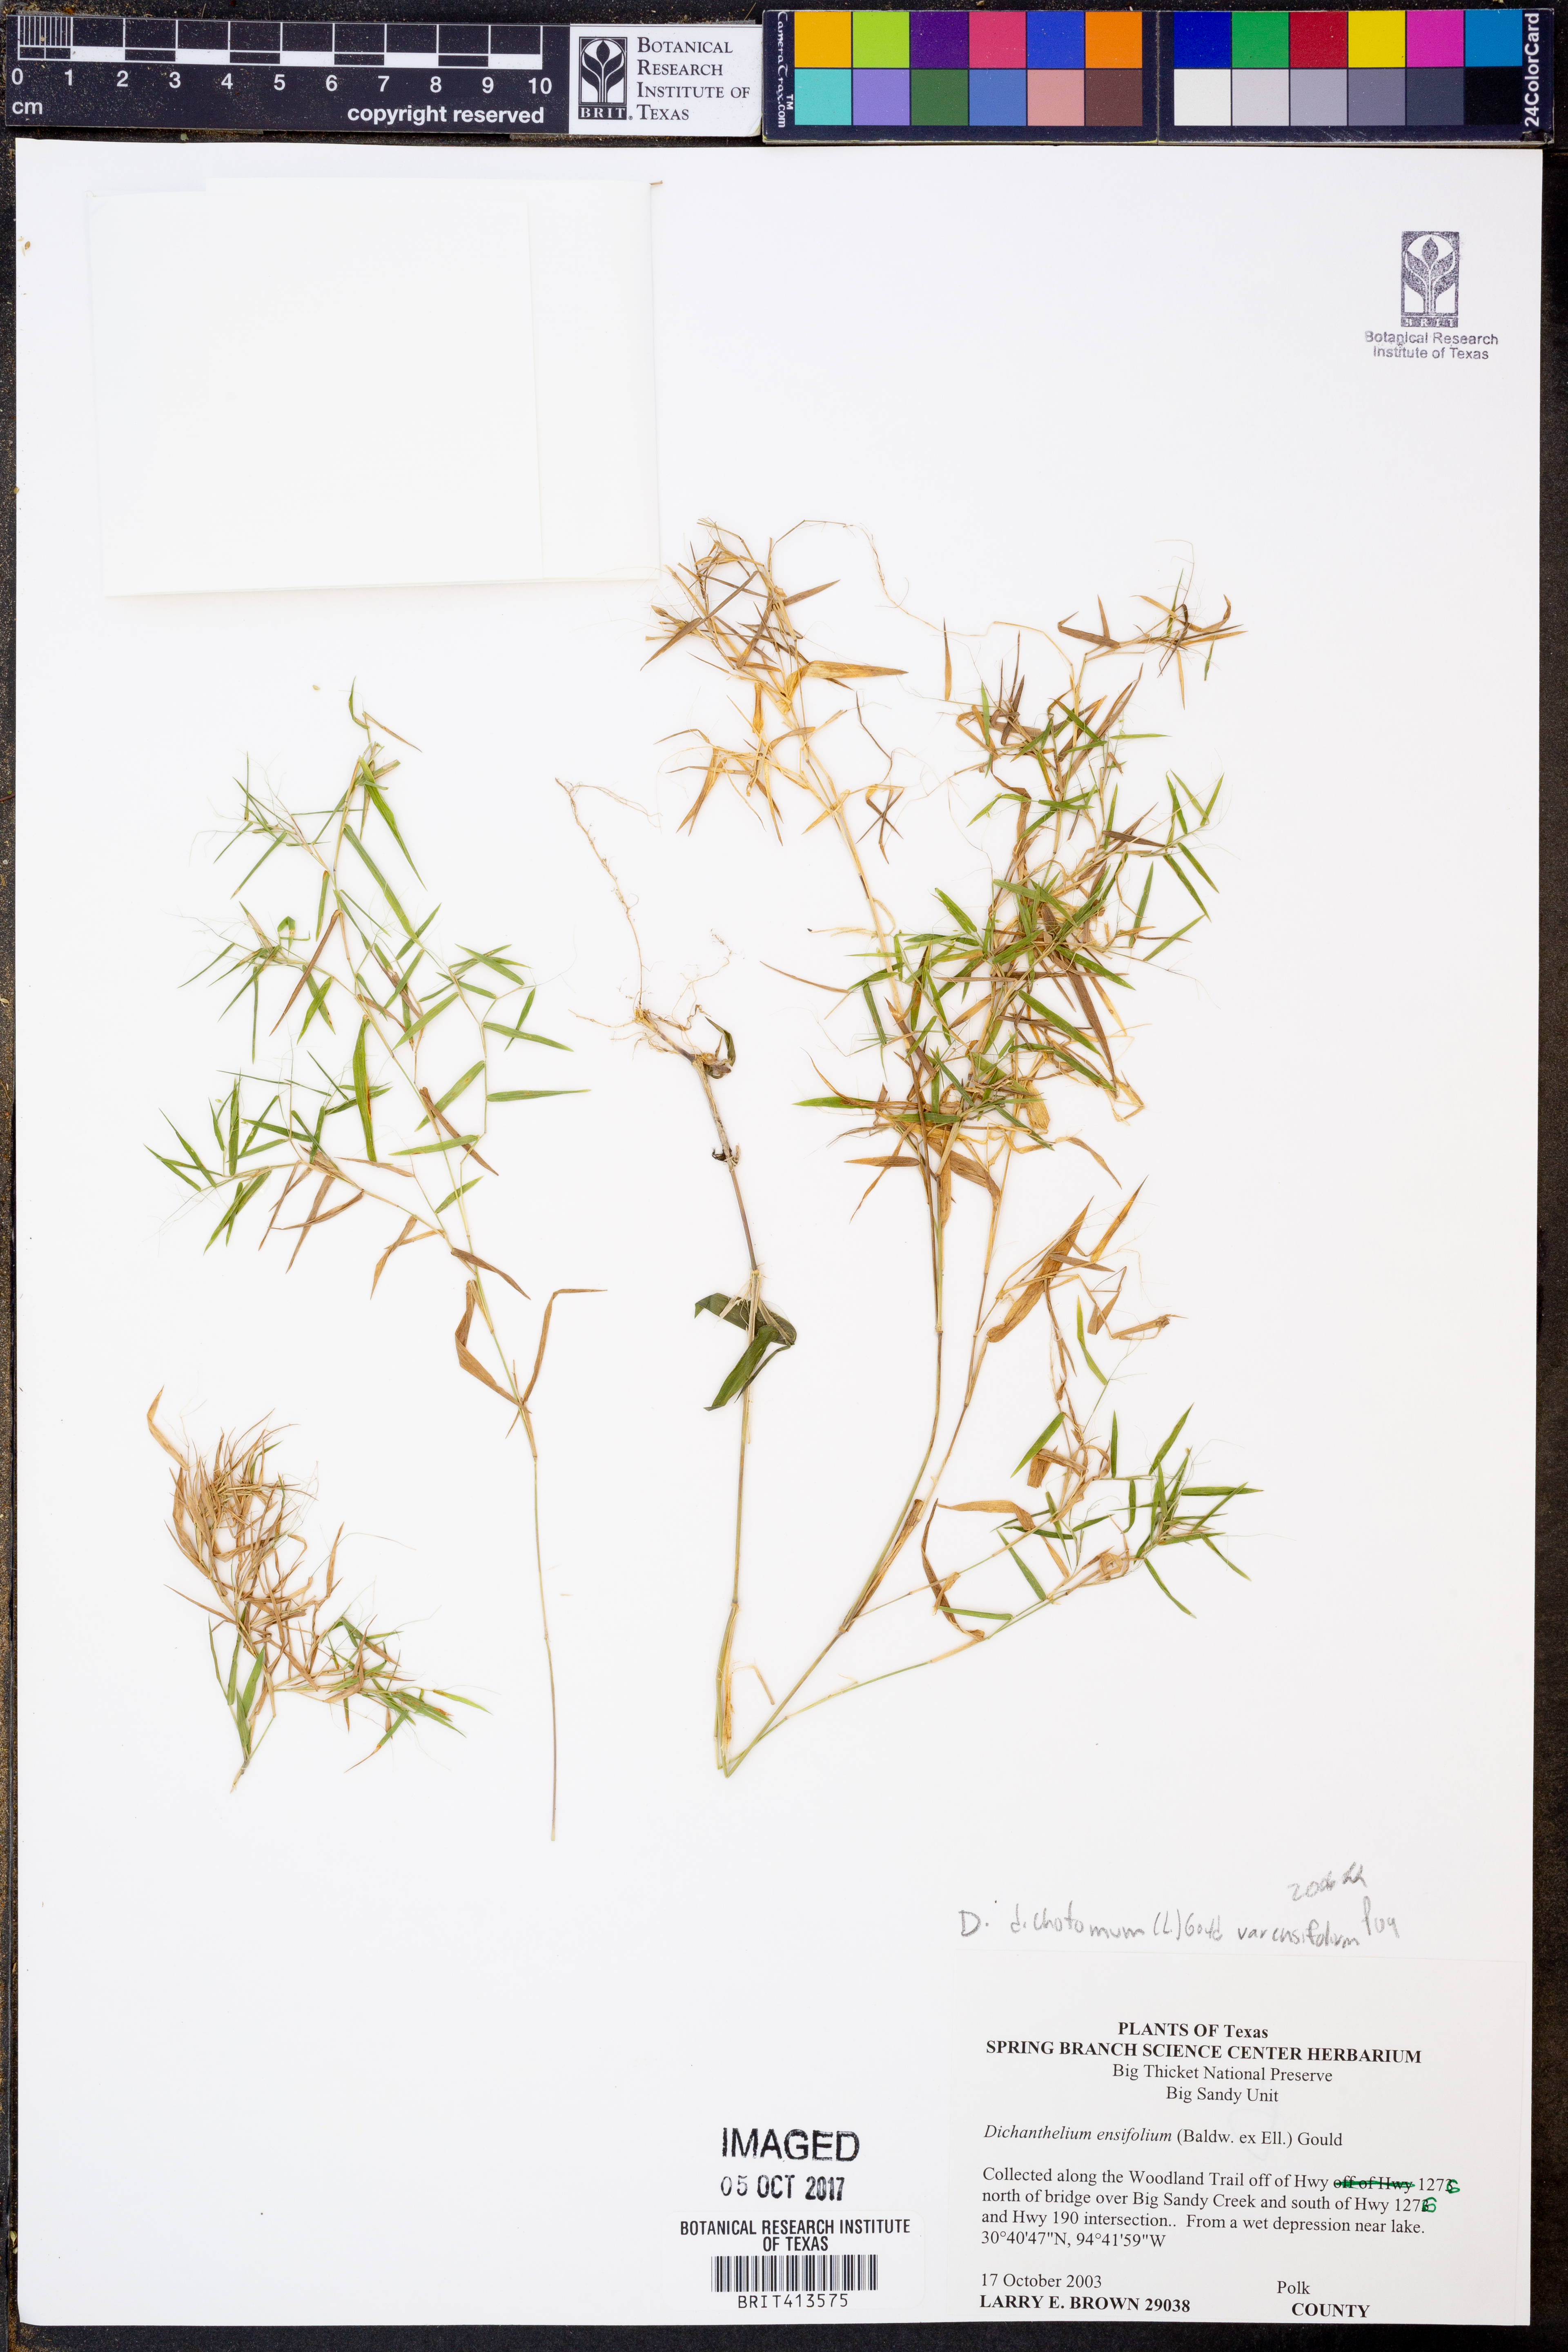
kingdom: Plantae
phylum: Tracheophyta
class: Liliopsida
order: Poales
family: Poaceae
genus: Dichanthelium
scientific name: Dichanthelium ensifolium
